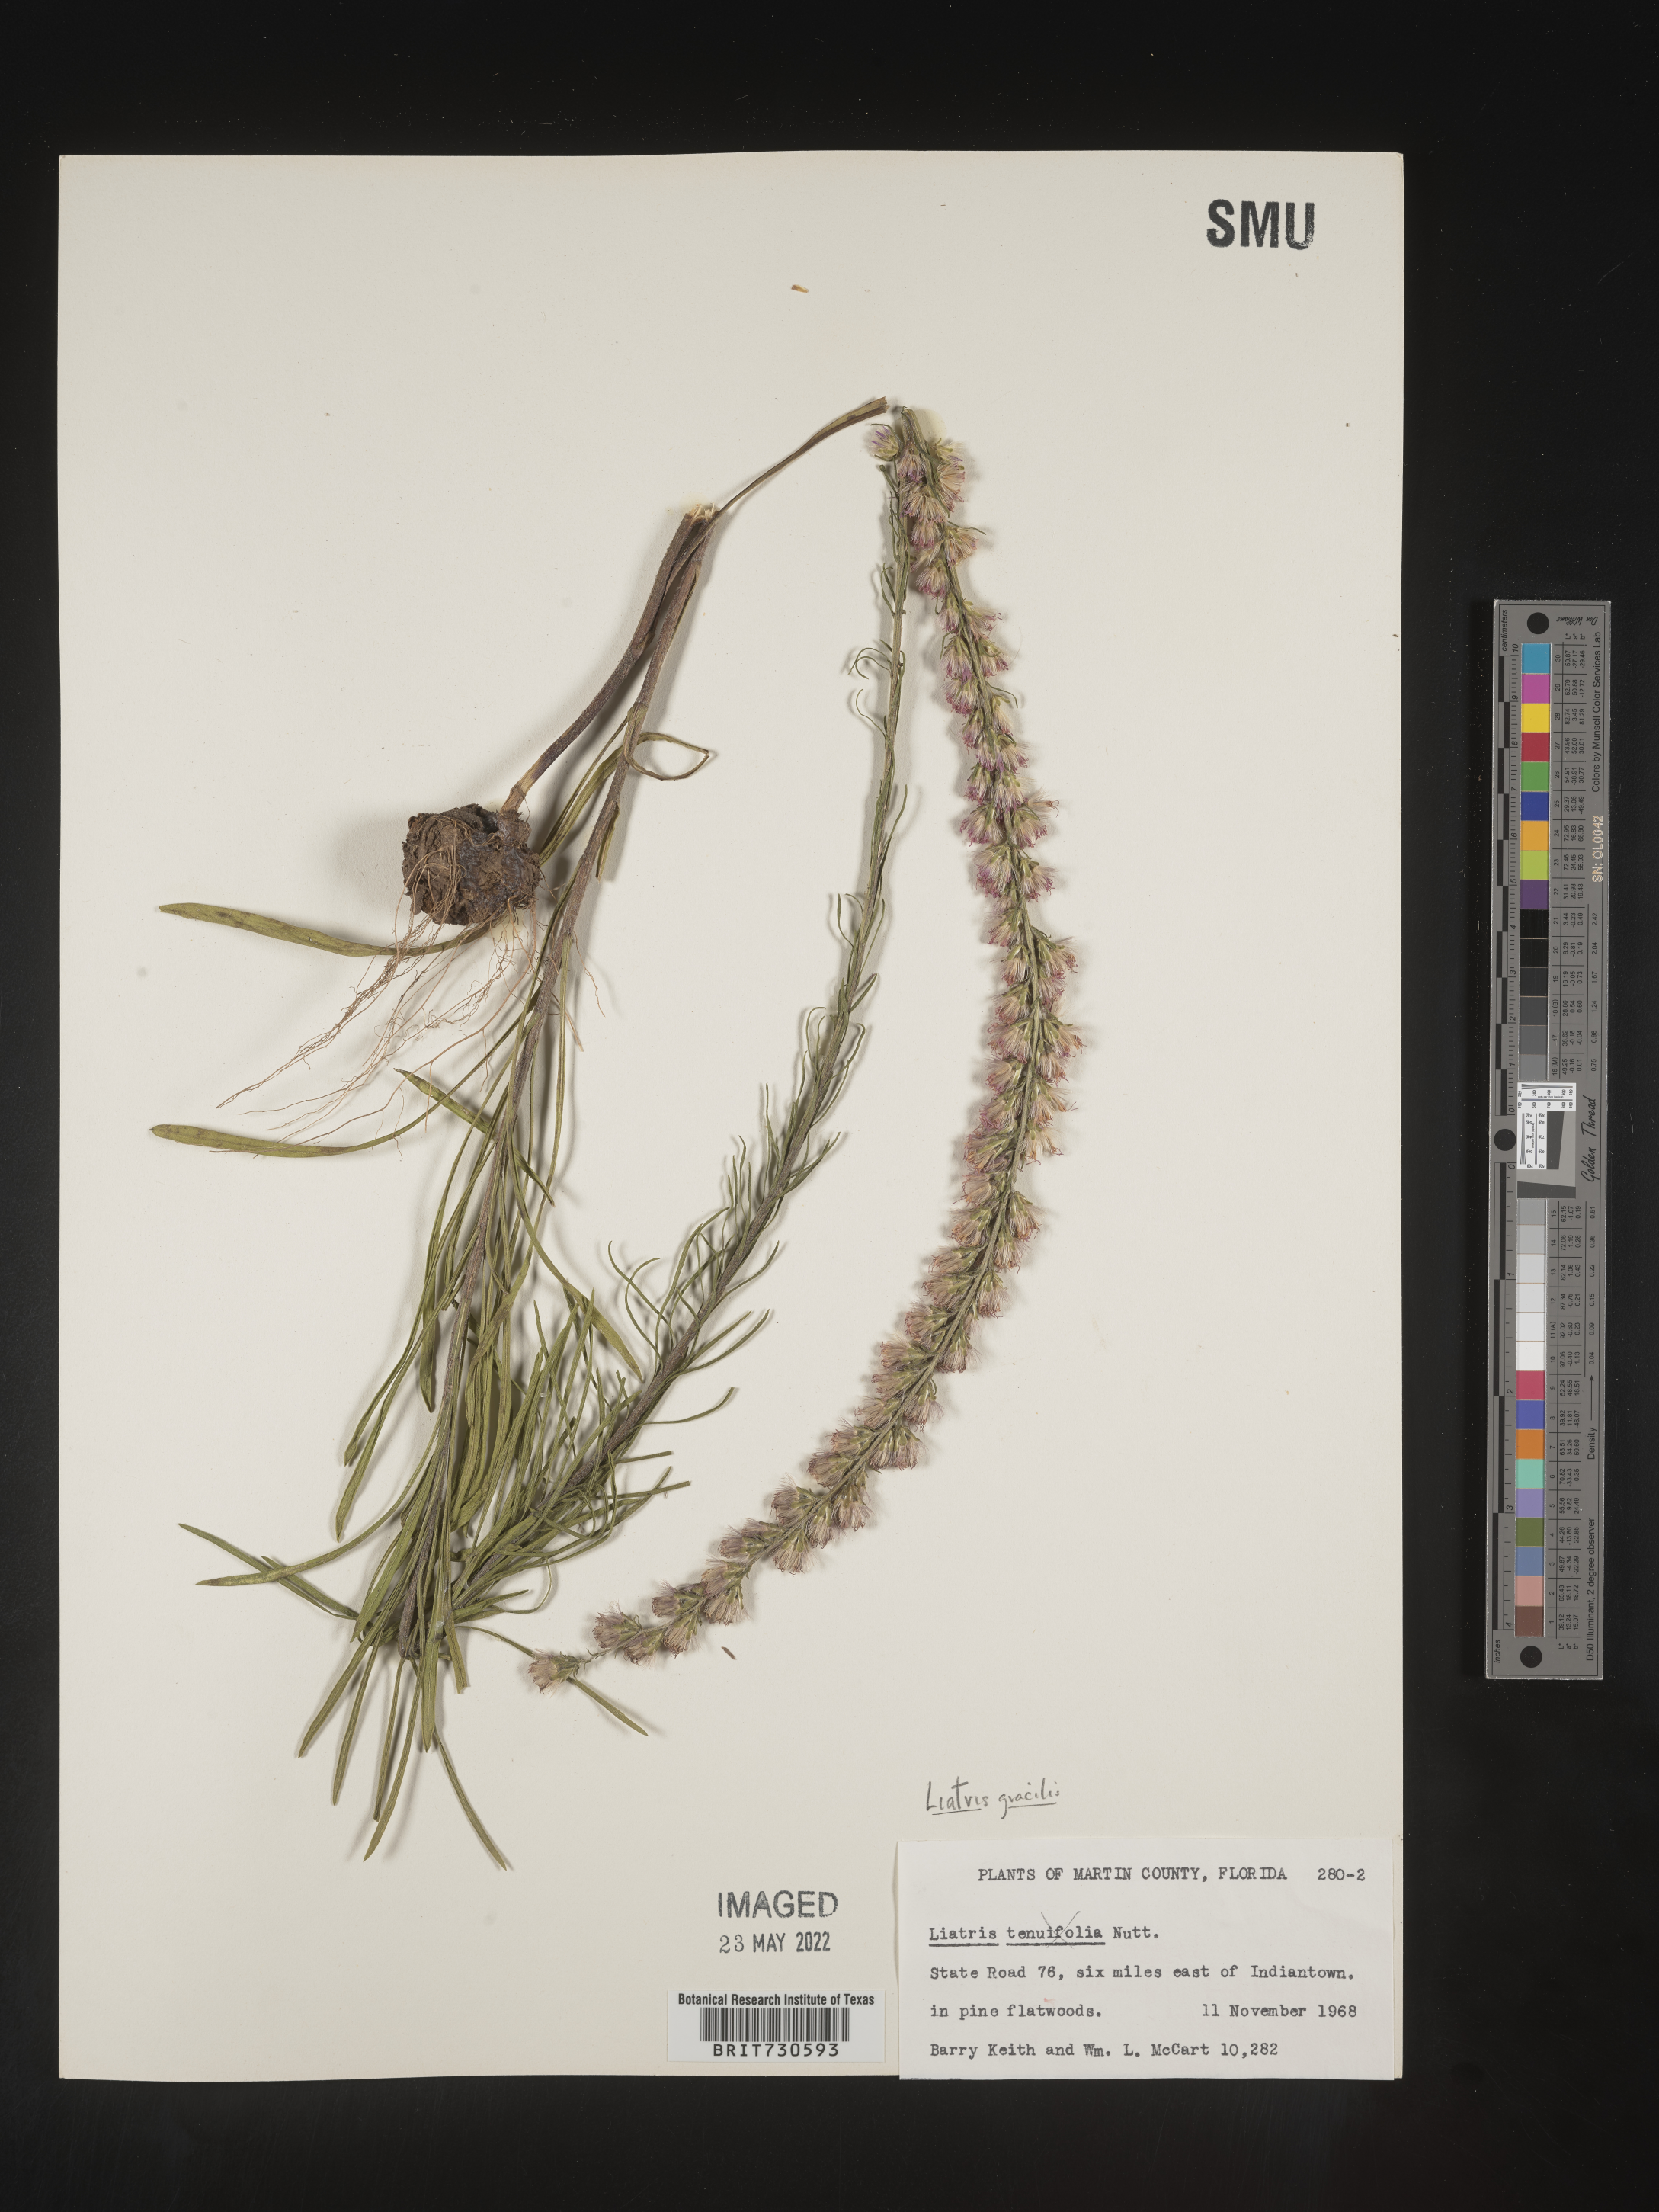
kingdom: Plantae
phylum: Tracheophyta
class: Magnoliopsida
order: Asterales
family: Asteraceae
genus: Liatris
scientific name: Liatris gracilis
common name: Slender gayfeather
